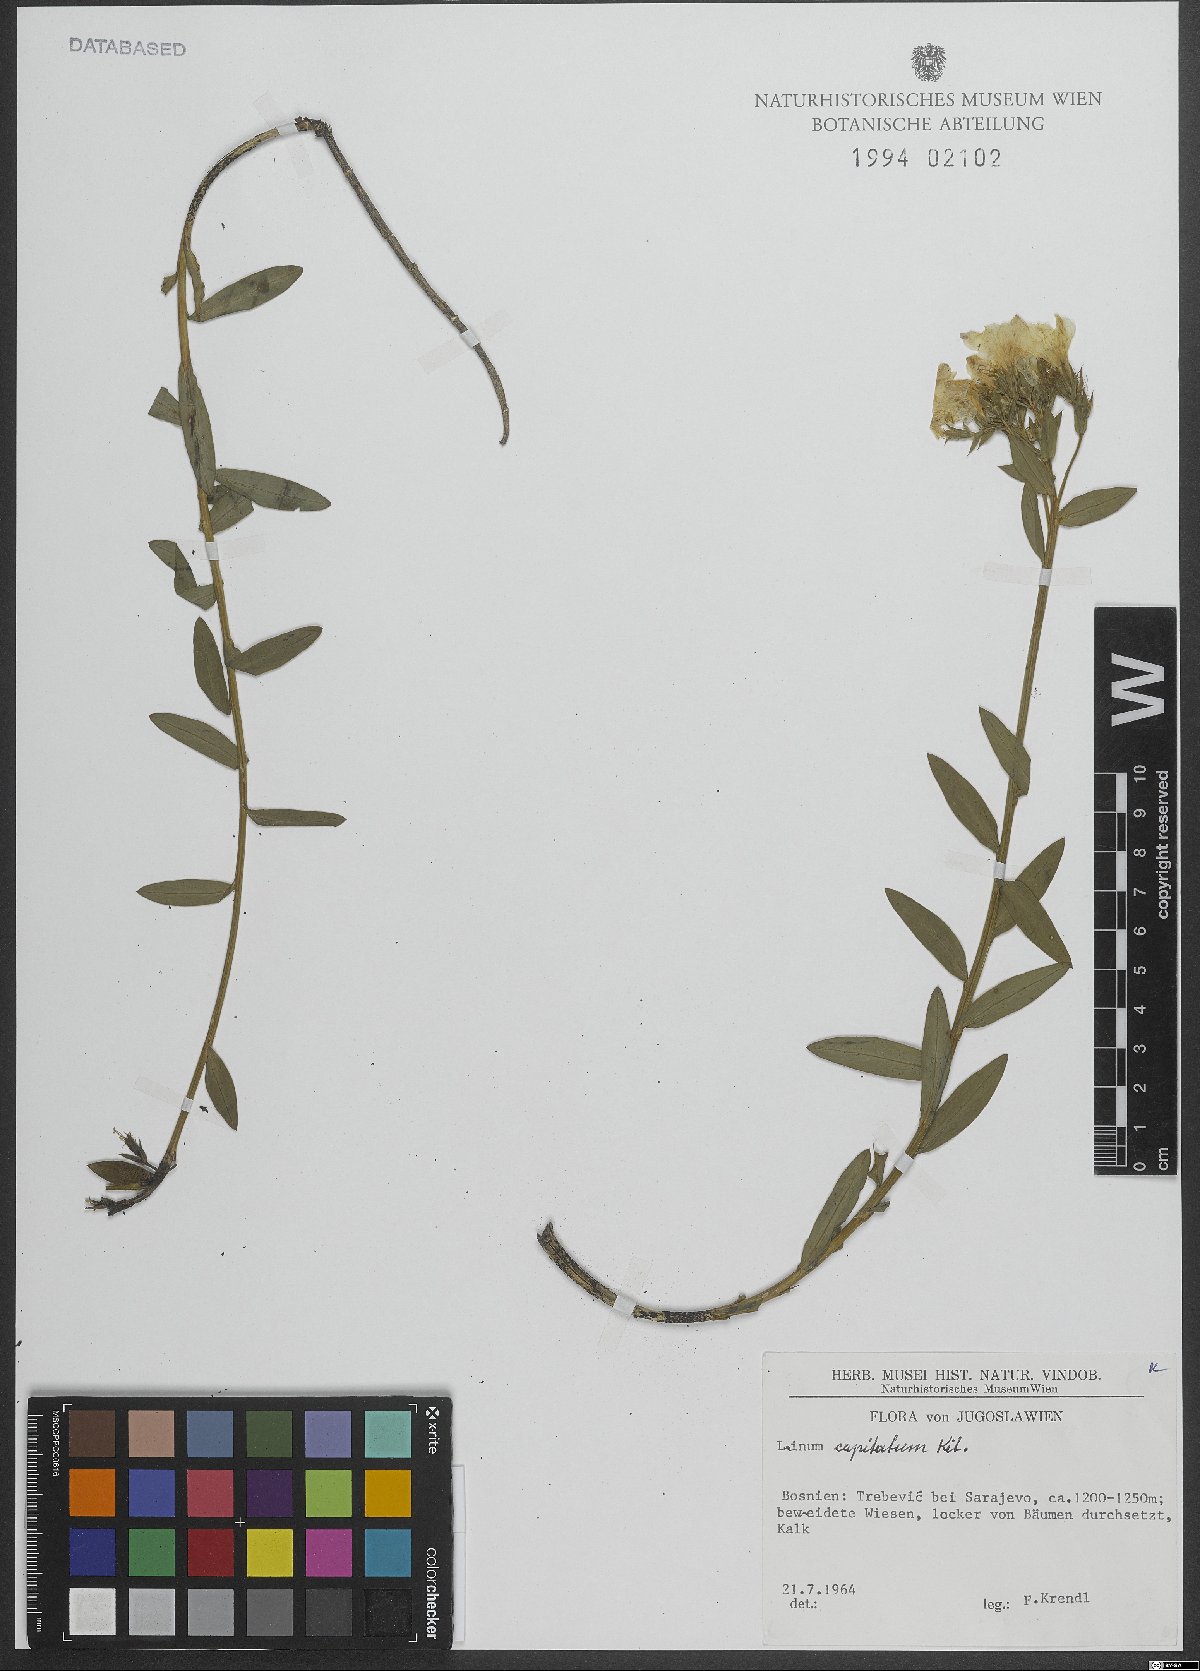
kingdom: Plantae
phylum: Tracheophyta
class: Magnoliopsida
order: Malpighiales
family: Linaceae
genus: Linum
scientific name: Linum capitatum
